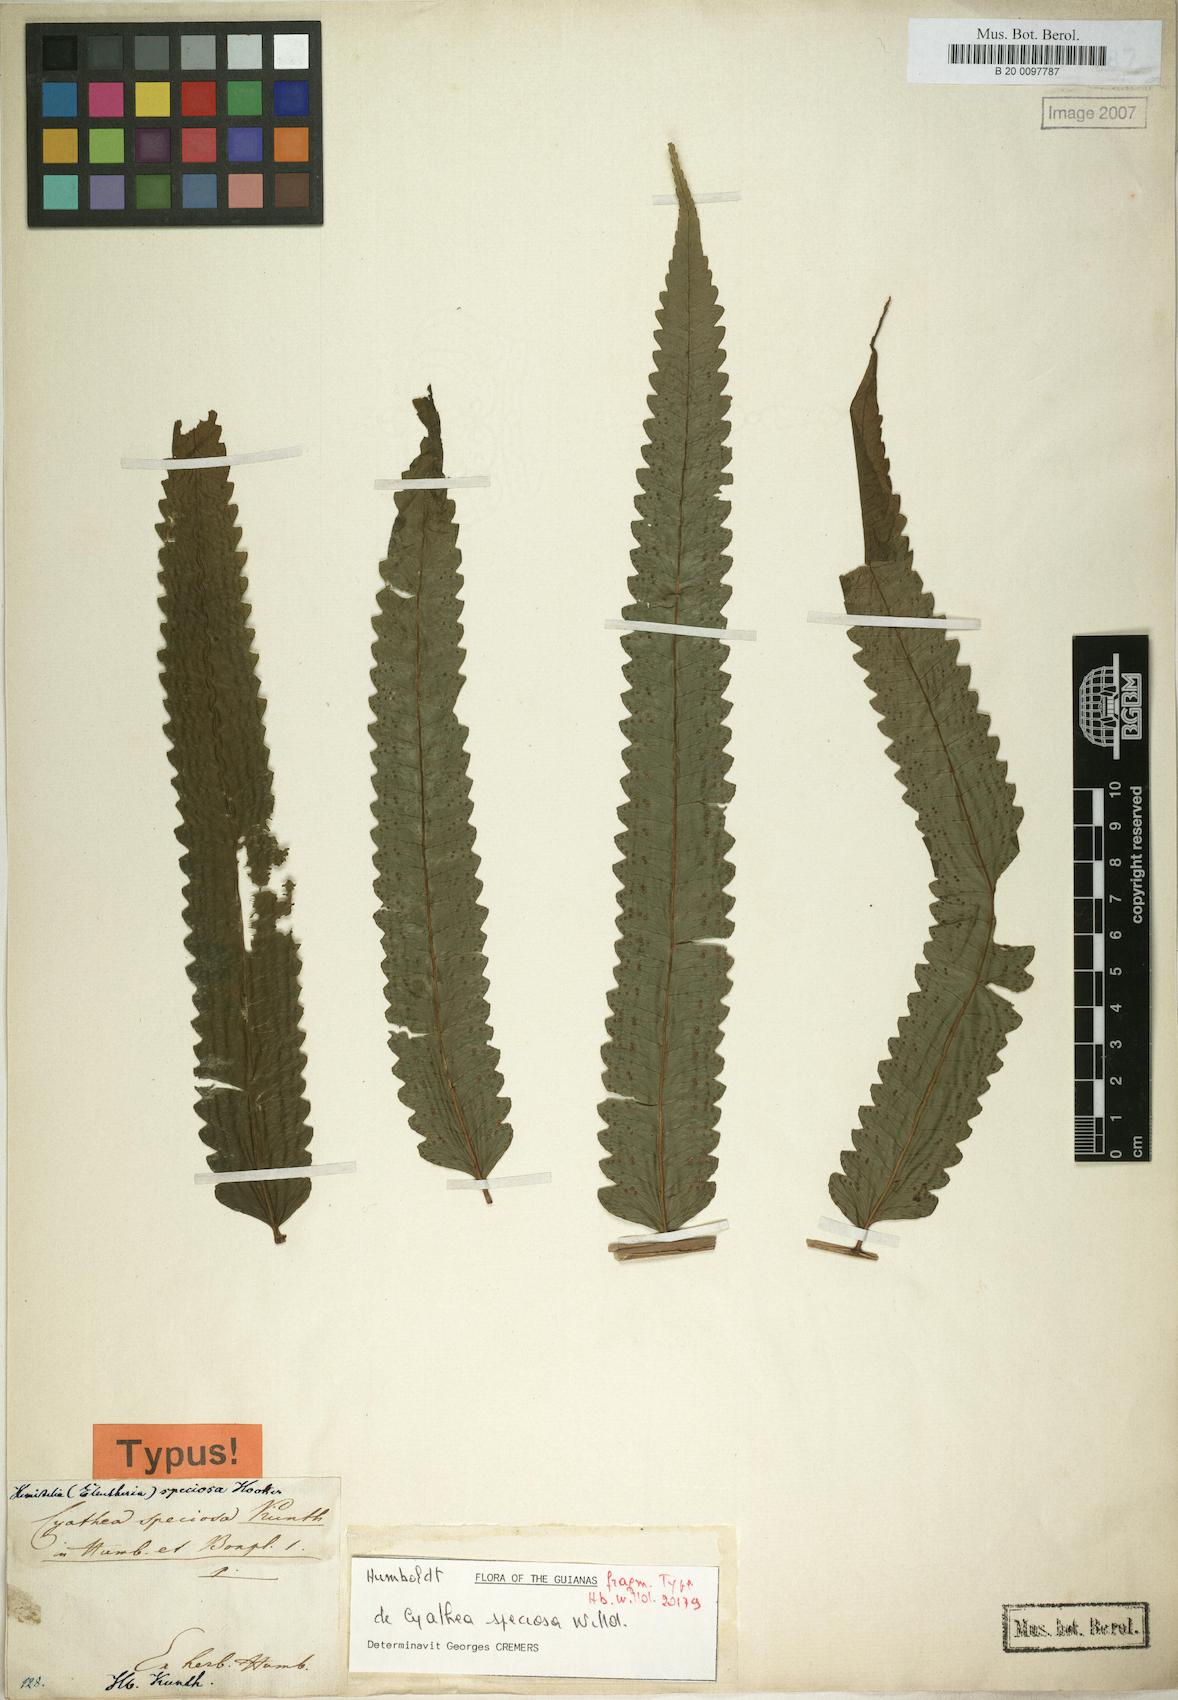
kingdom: Plantae
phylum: Tracheophyta
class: Polypodiopsida
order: Cyatheales
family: Cyatheaceae
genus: Cyathea
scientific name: Cyathea speciosa
